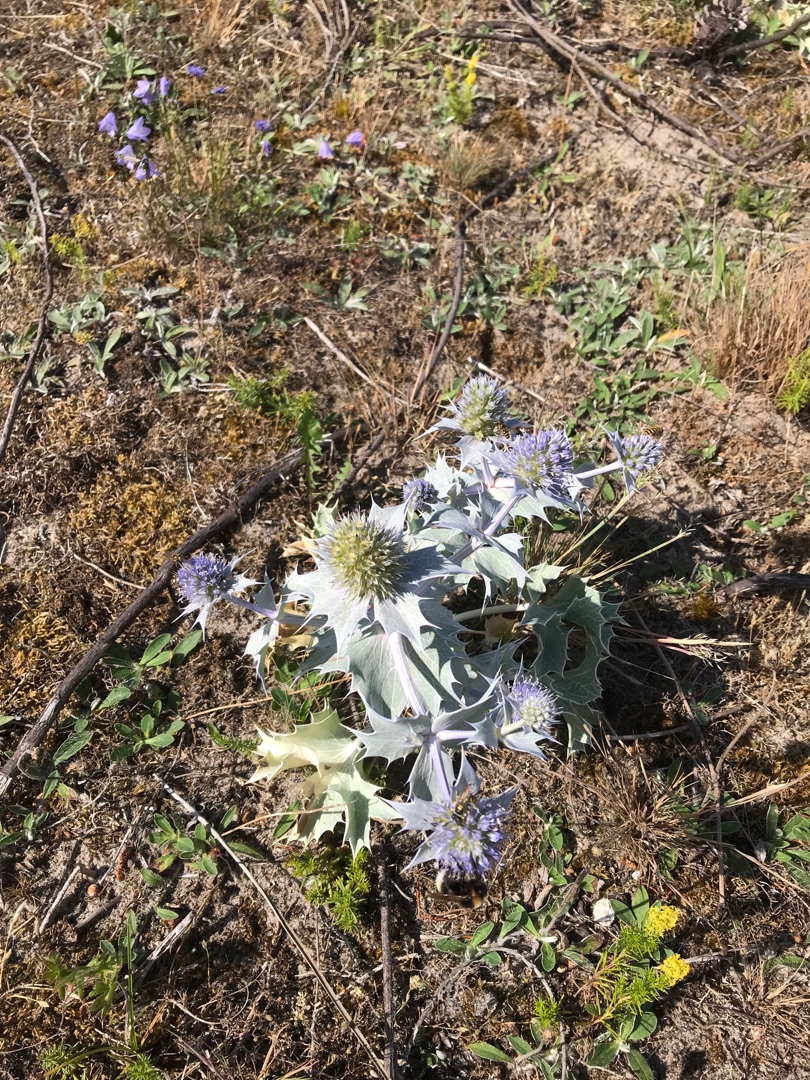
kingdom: Plantae
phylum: Tracheophyta
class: Magnoliopsida
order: Apiales
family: Apiaceae
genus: Eryngium
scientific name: Eryngium maritimum
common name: Strand-mandstro
